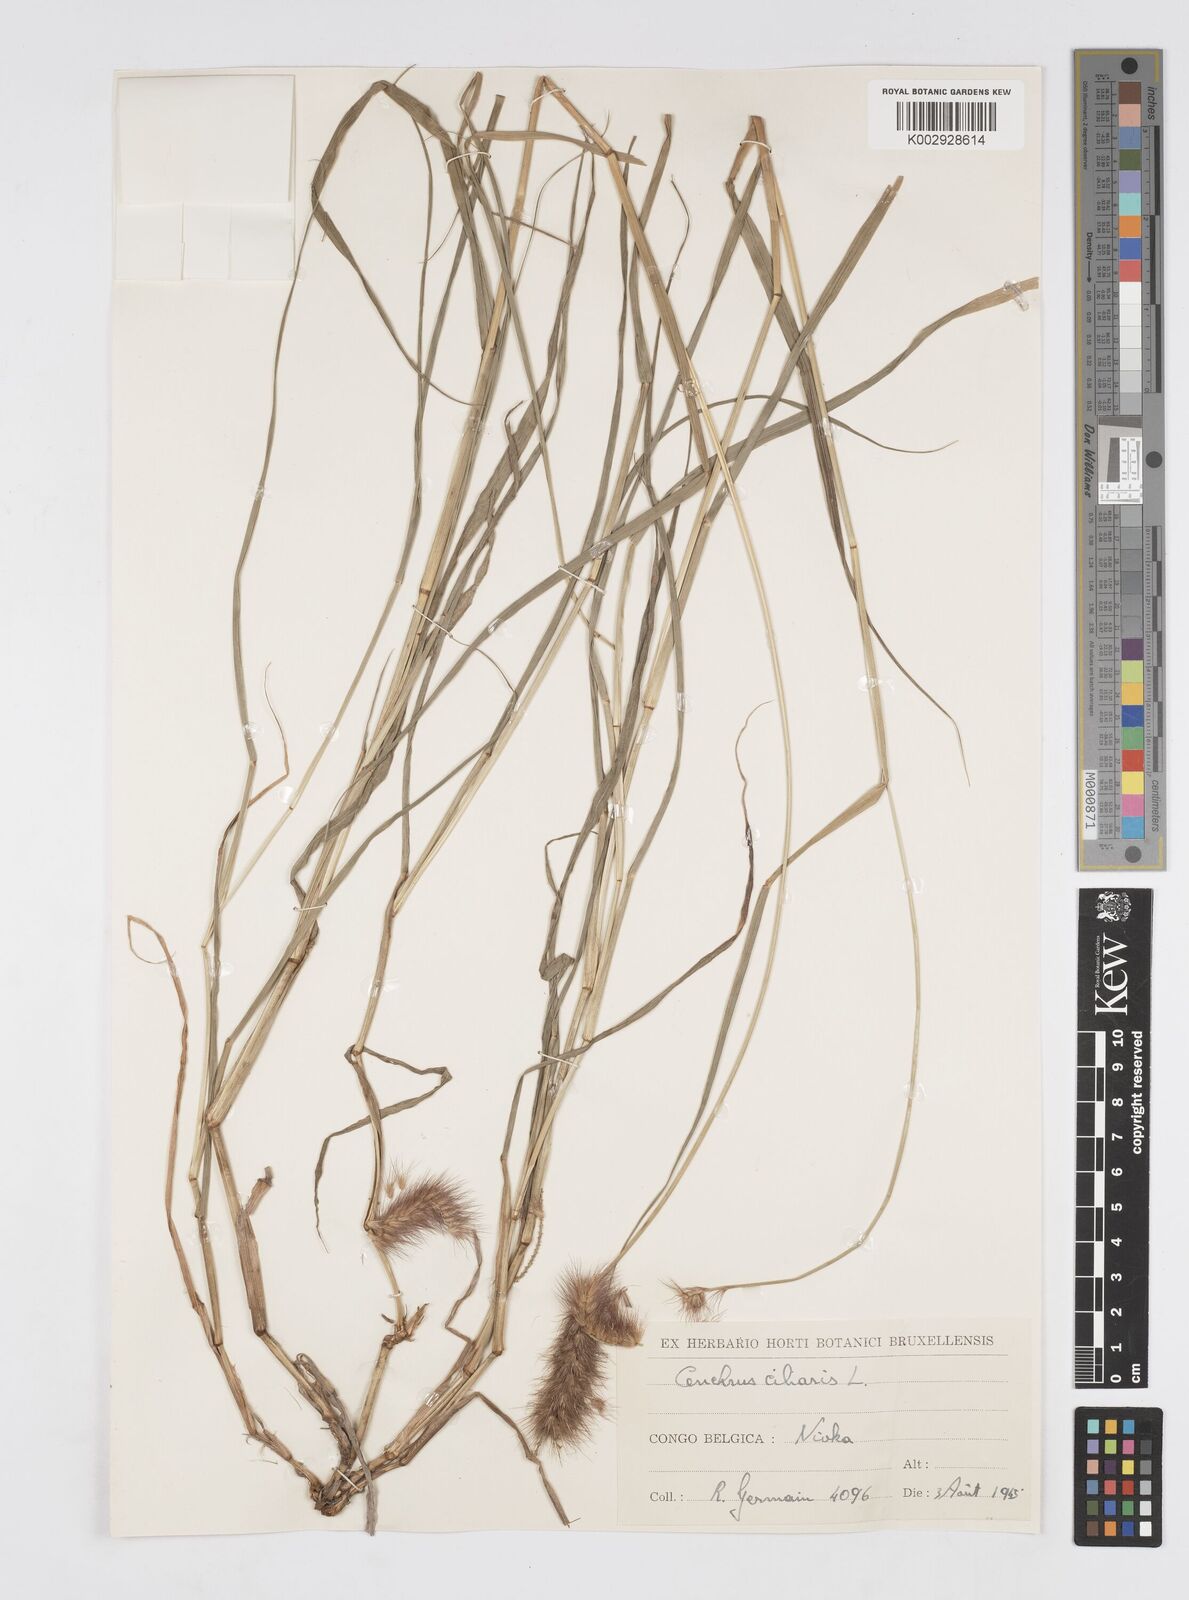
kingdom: Plantae
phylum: Tracheophyta
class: Liliopsida
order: Poales
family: Poaceae
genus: Cenchrus
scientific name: Cenchrus ciliaris
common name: Buffelgrass
